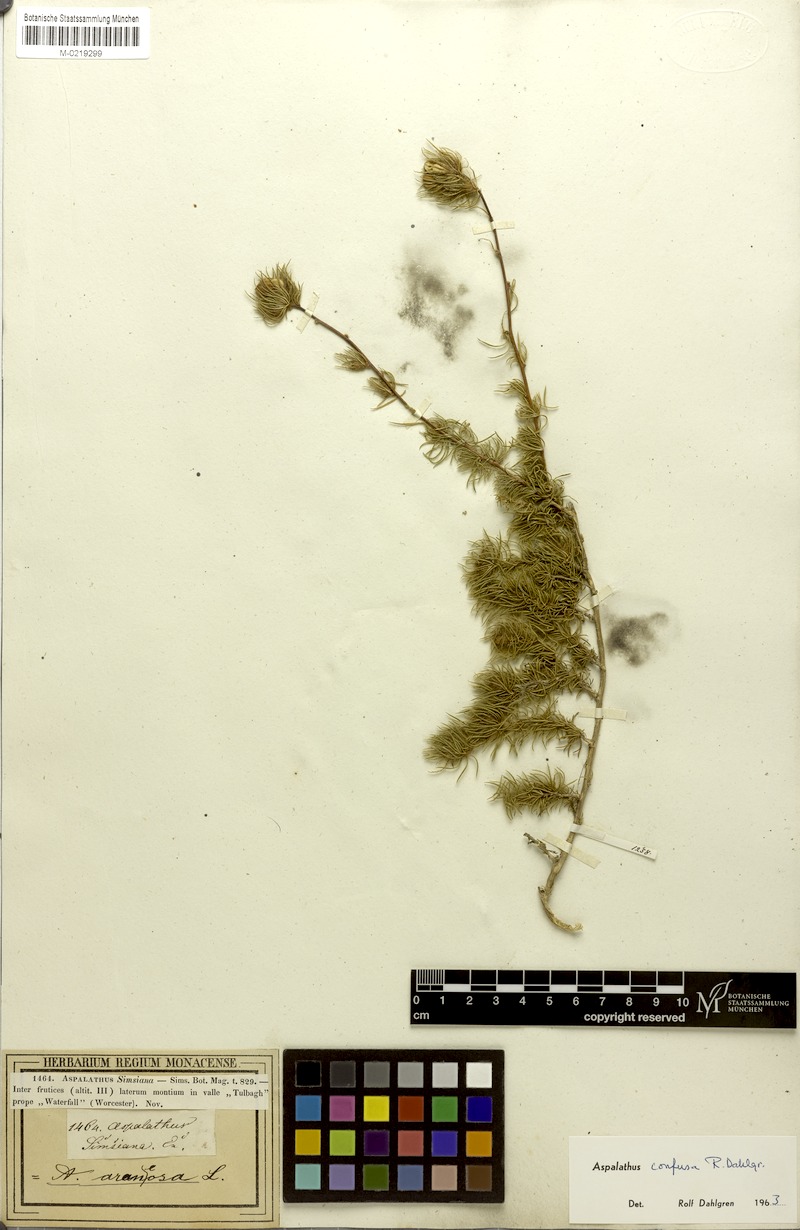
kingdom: Plantae
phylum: Tracheophyta
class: Magnoliopsida
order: Fabales
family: Fabaceae
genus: Aspalathus
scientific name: Aspalathus confusa
